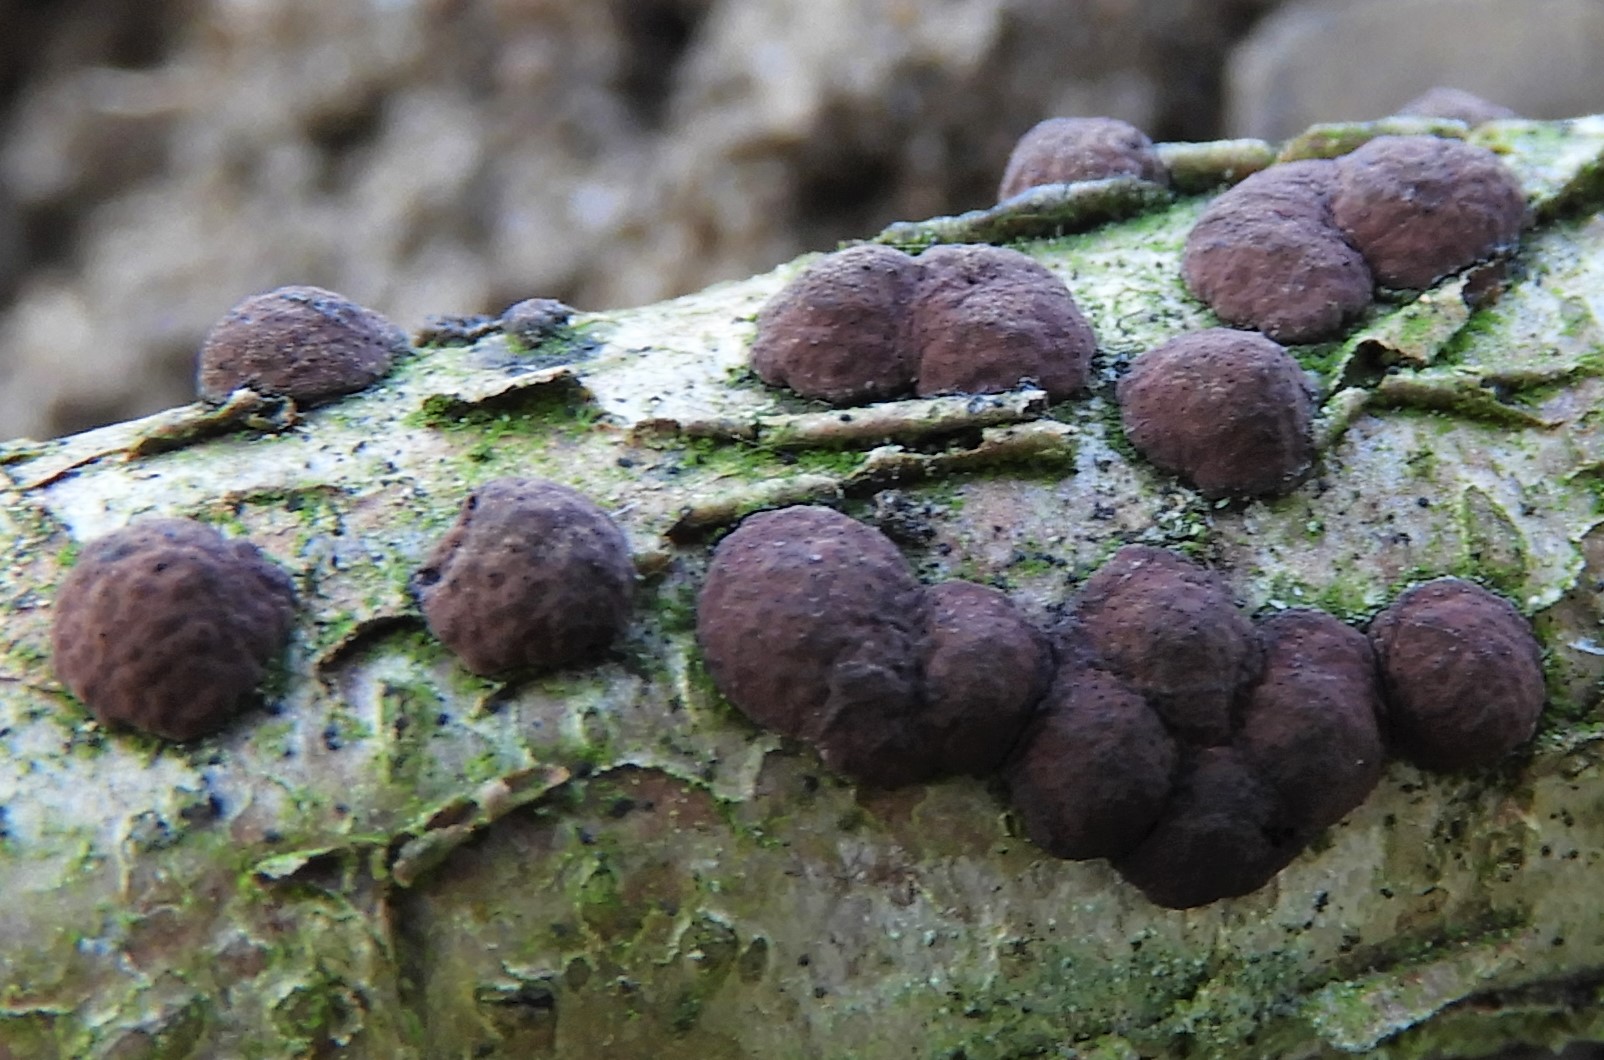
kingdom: Fungi
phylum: Ascomycota
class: Sordariomycetes
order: Xylariales
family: Hypoxylaceae
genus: Hypoxylon
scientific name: Hypoxylon fuscum
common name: kegleformet kulbær
